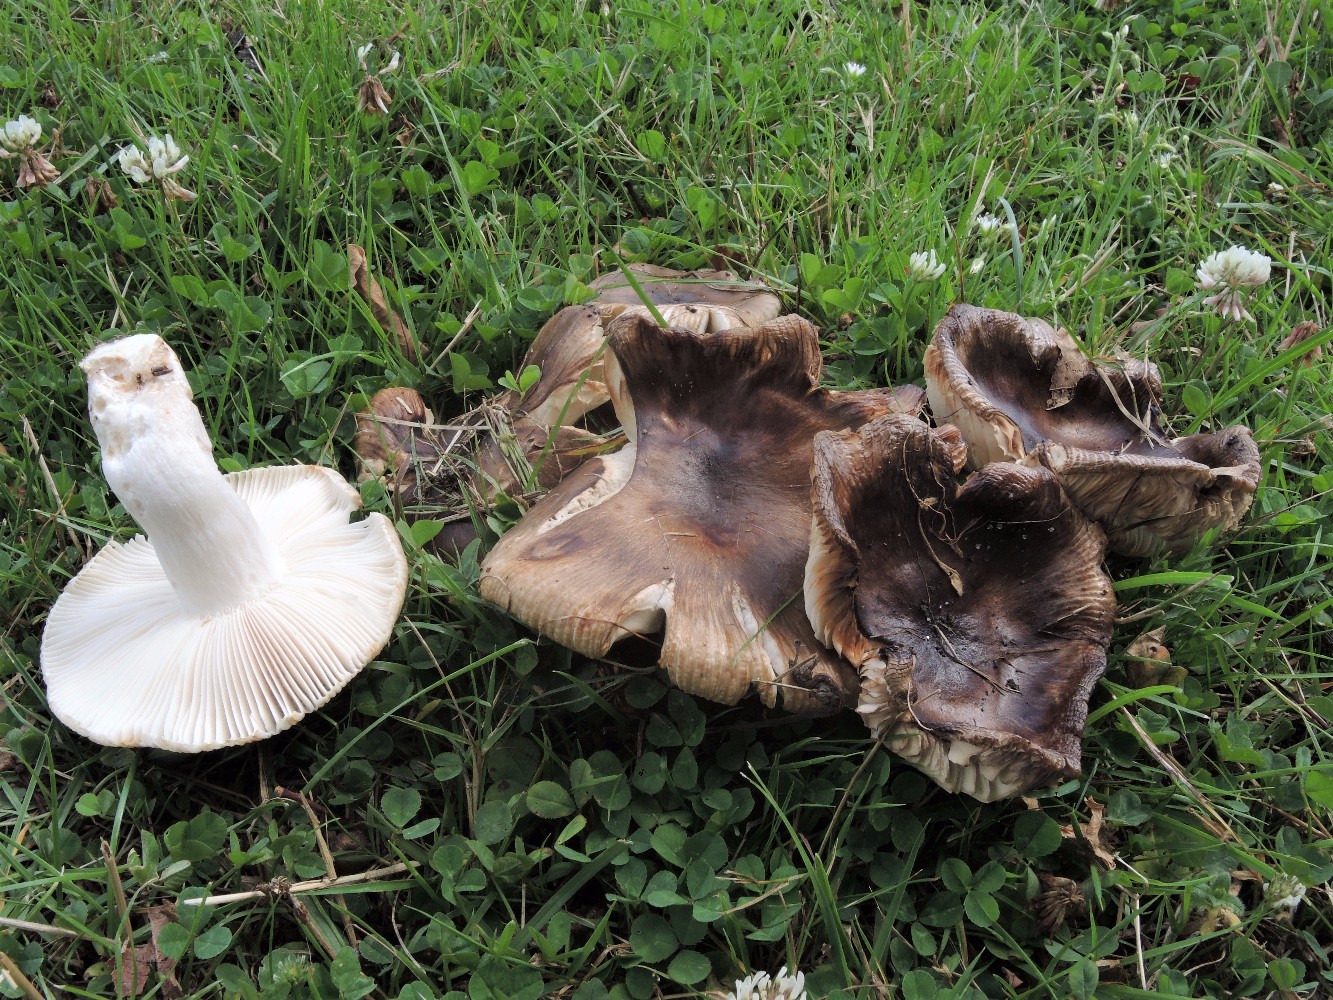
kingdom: Fungi
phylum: Basidiomycota
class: Agaricomycetes
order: Russulales
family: Russulaceae
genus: Russula
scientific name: Russula sororia
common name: brun kam-skørhat
